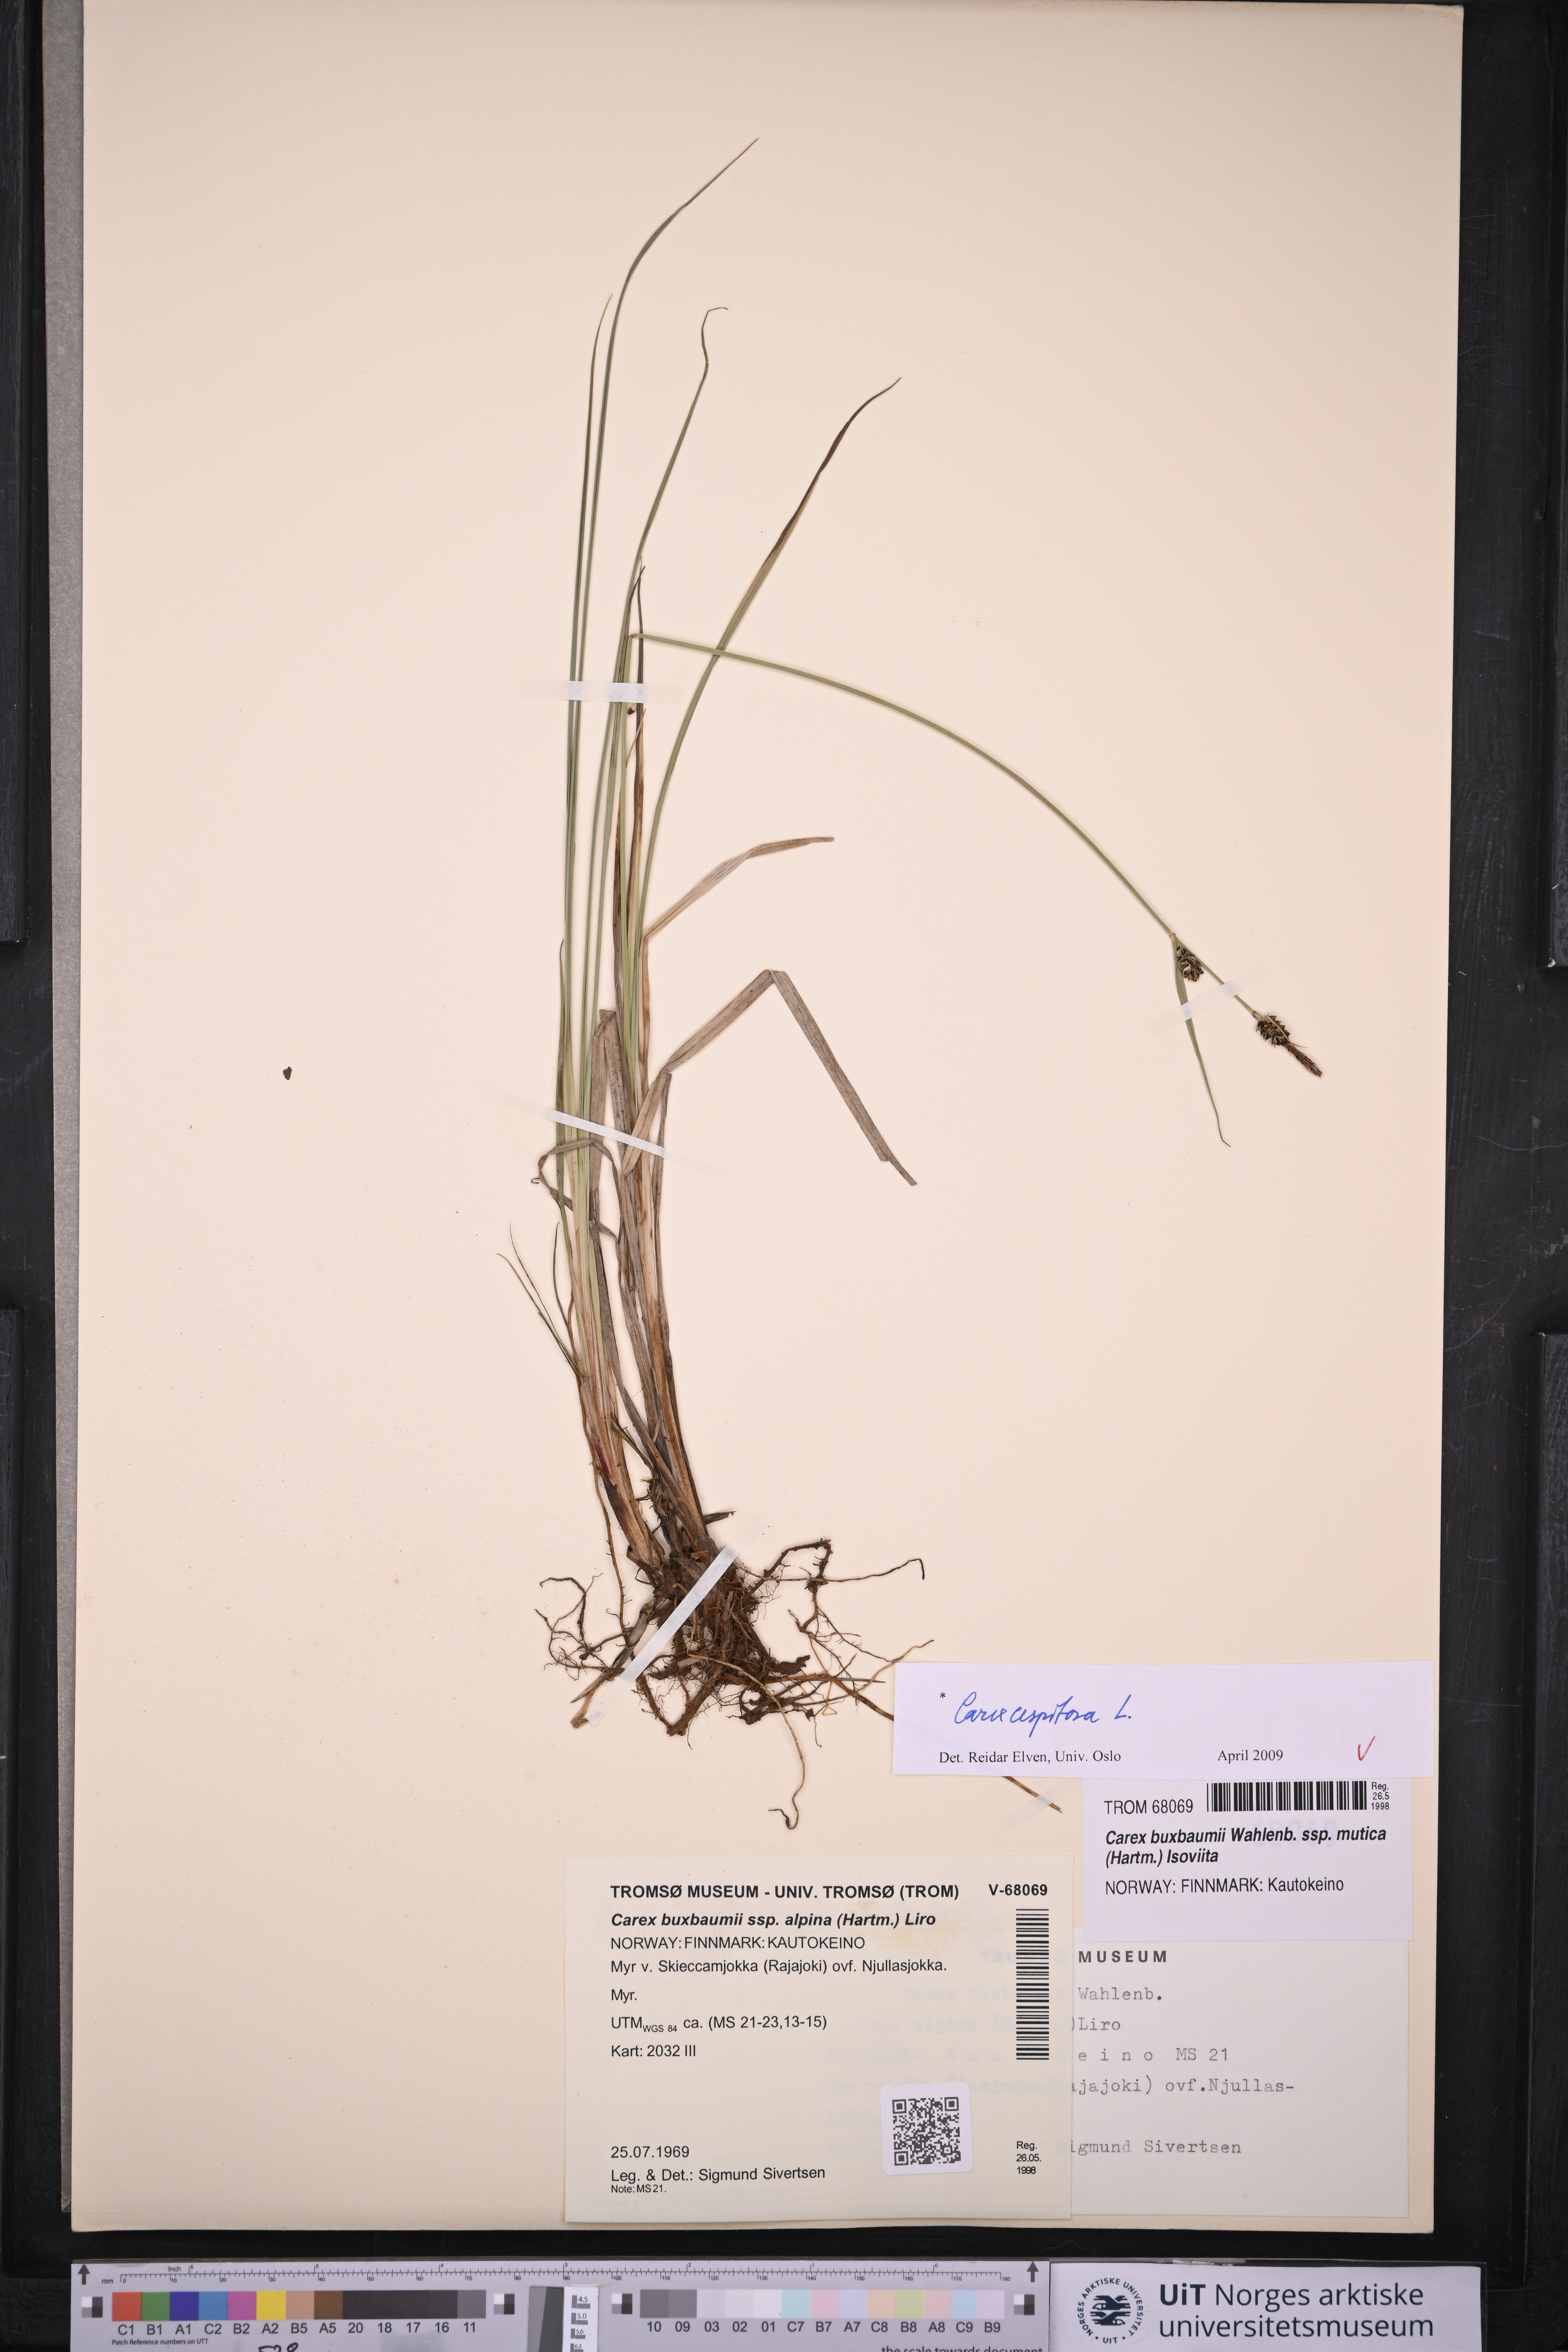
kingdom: Plantae
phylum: Tracheophyta
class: Liliopsida
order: Poales
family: Cyperaceae
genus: Carex
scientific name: Carex cespitosa
